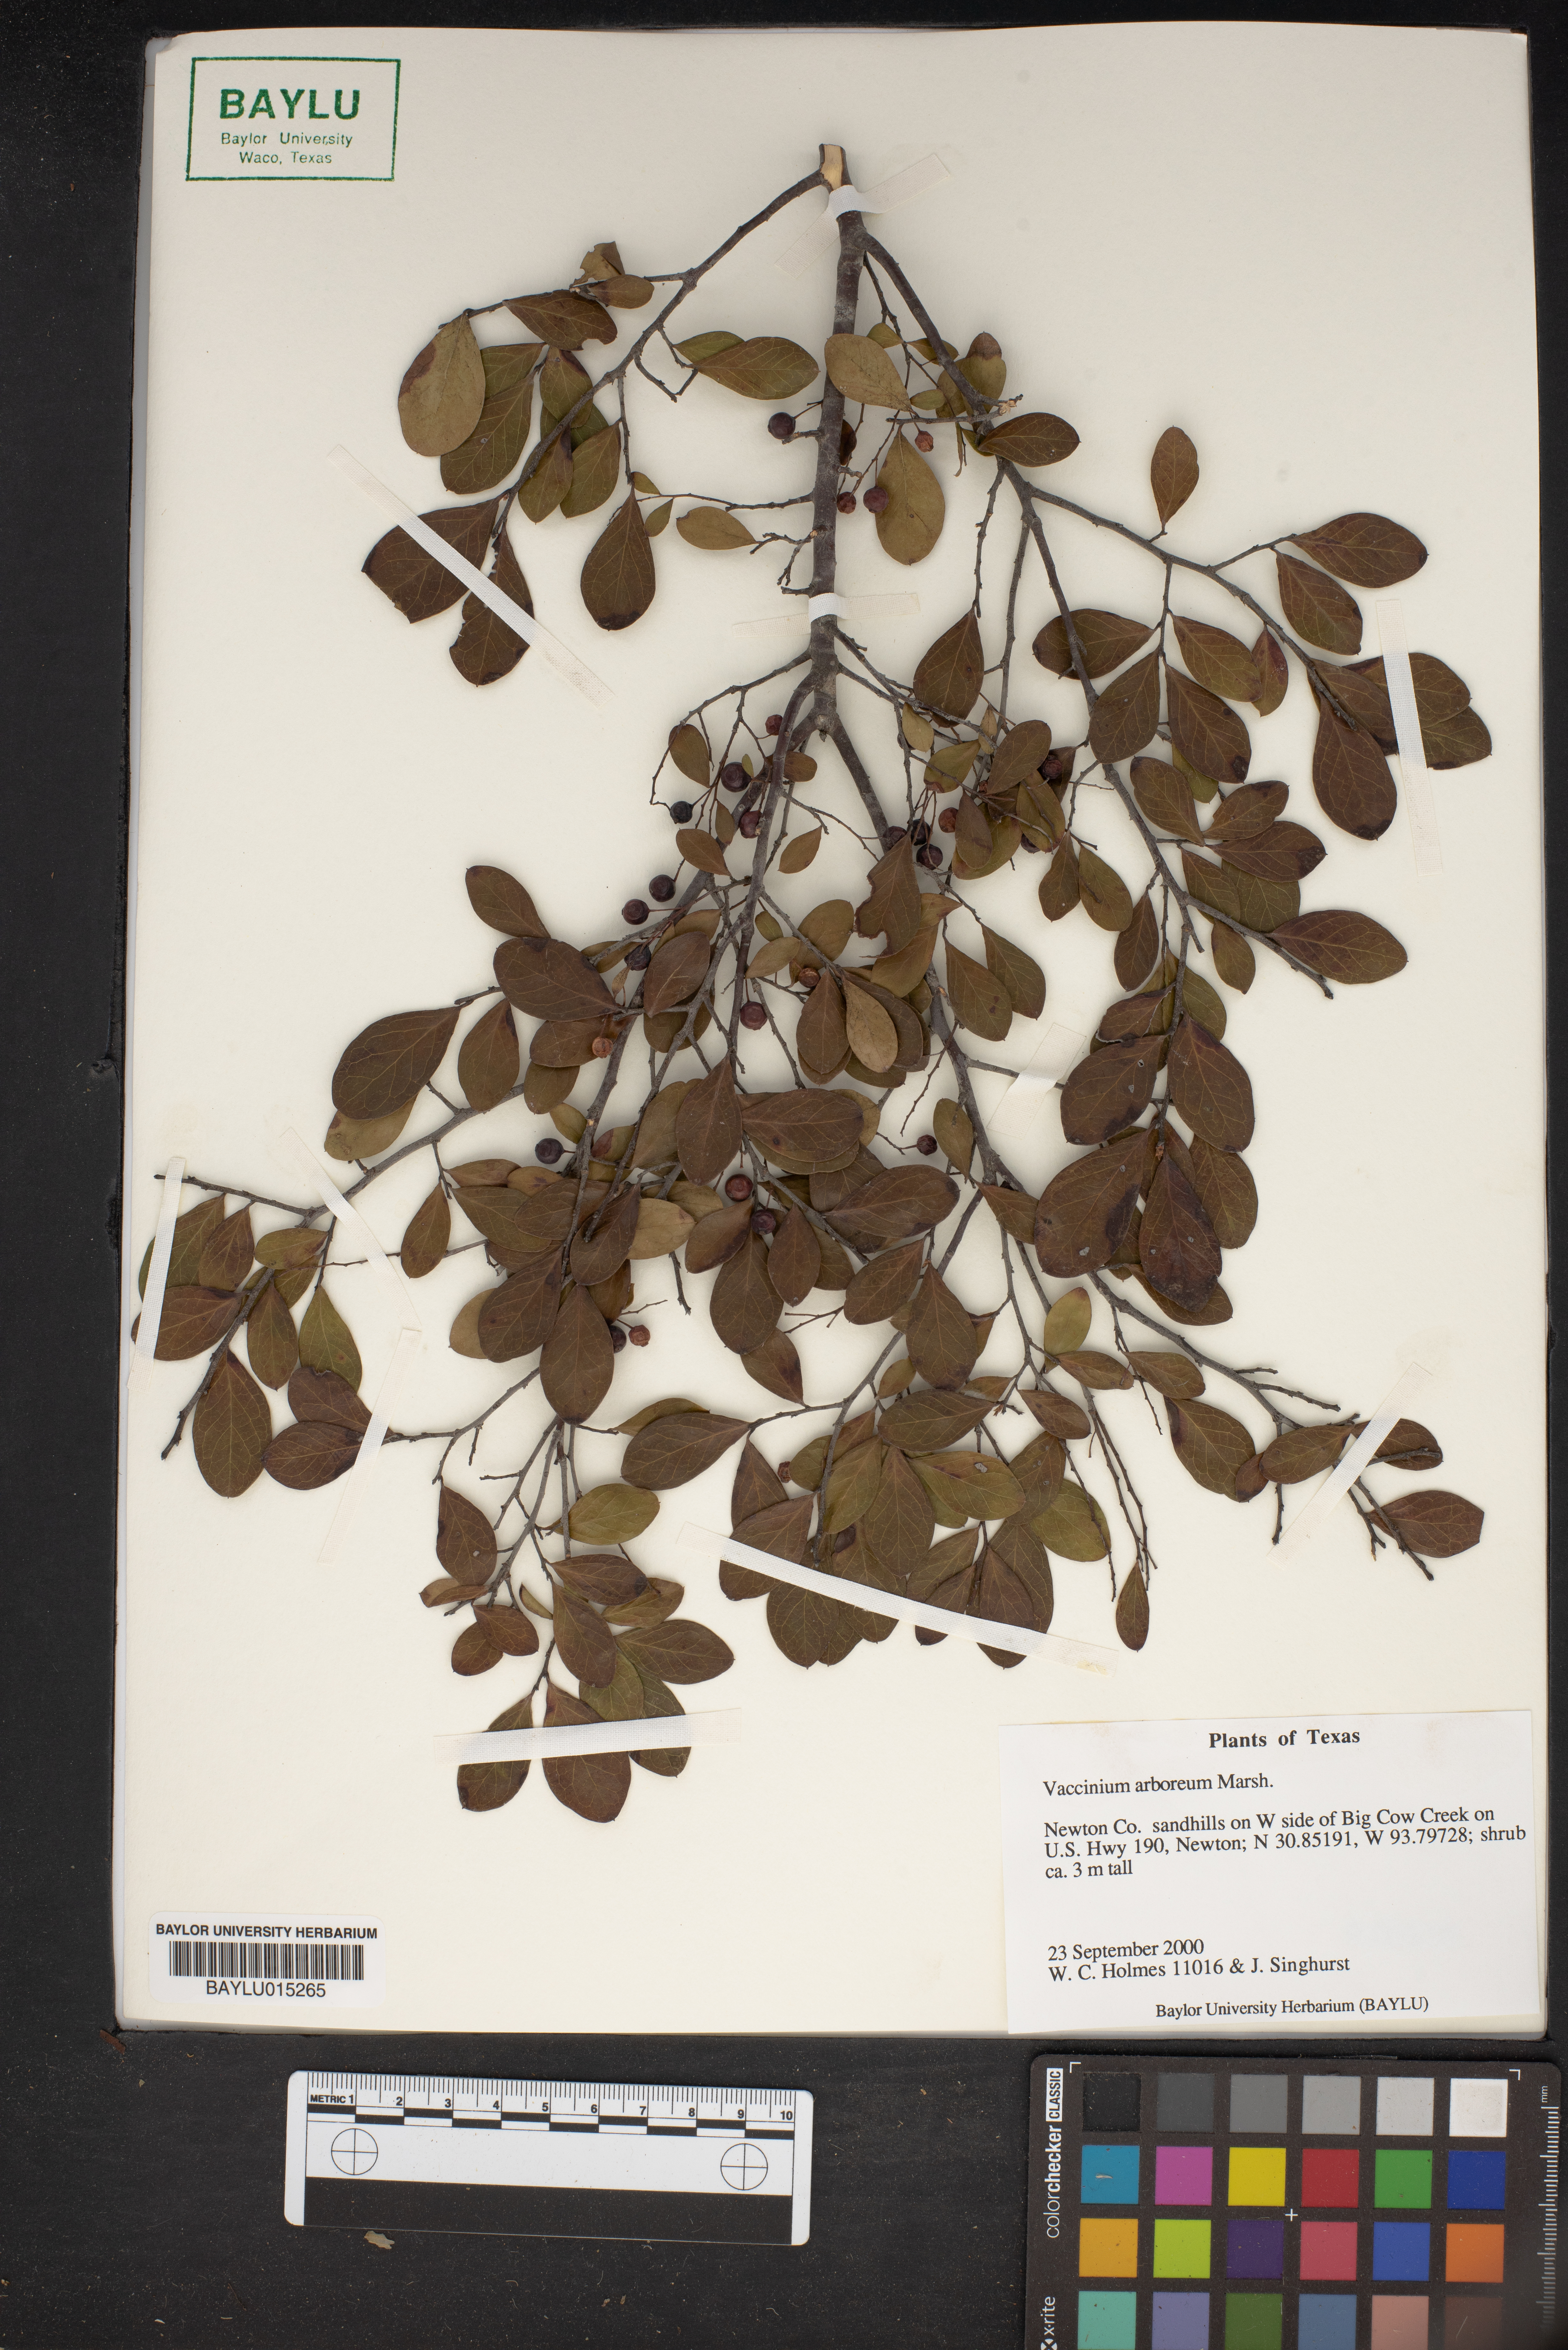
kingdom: Plantae
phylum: Tracheophyta
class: Magnoliopsida
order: Ericales
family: Ericaceae
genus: Vaccinium
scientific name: Vaccinium arboreum
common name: Farkleberry
